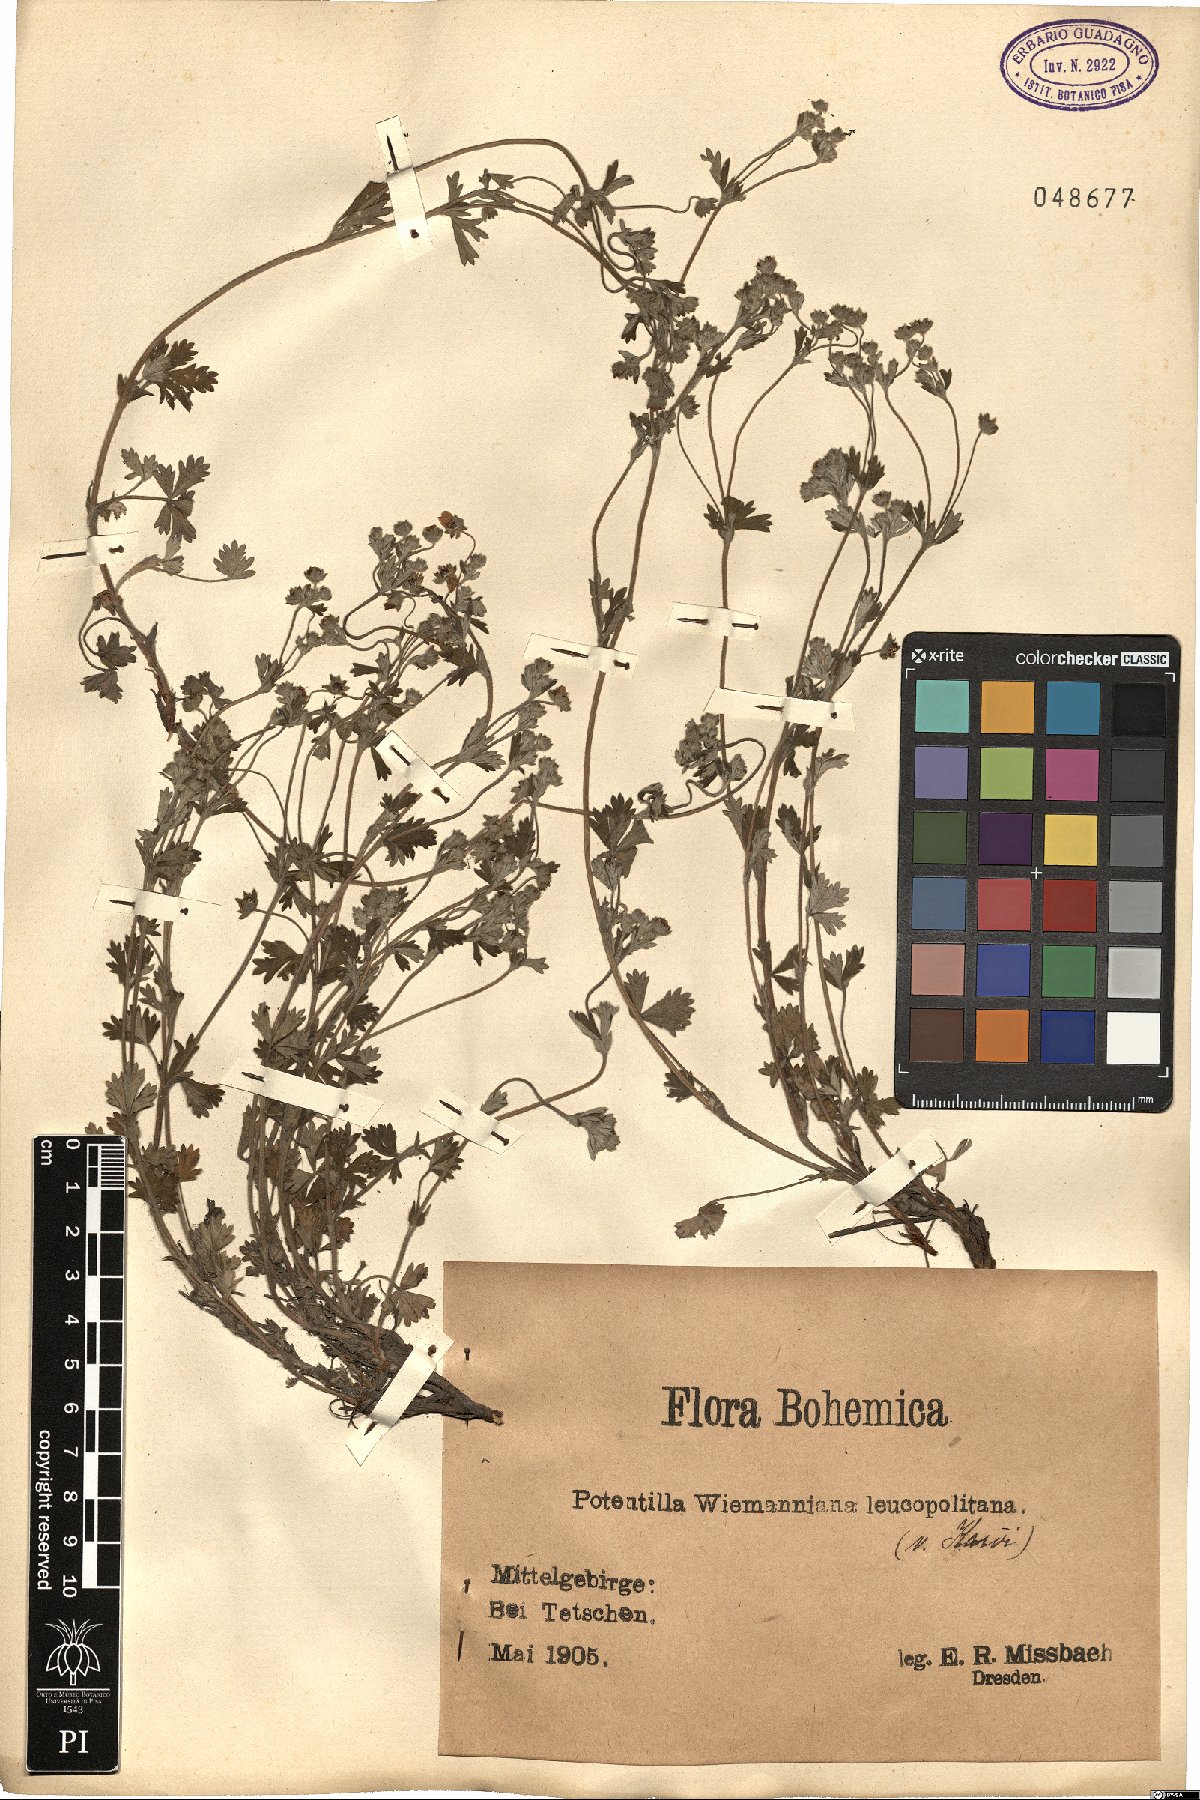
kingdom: Plantae
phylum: Tracheophyta
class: Magnoliopsida
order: Rosales
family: Rosaceae
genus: Potentilla
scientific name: Potentilla wimanniana
